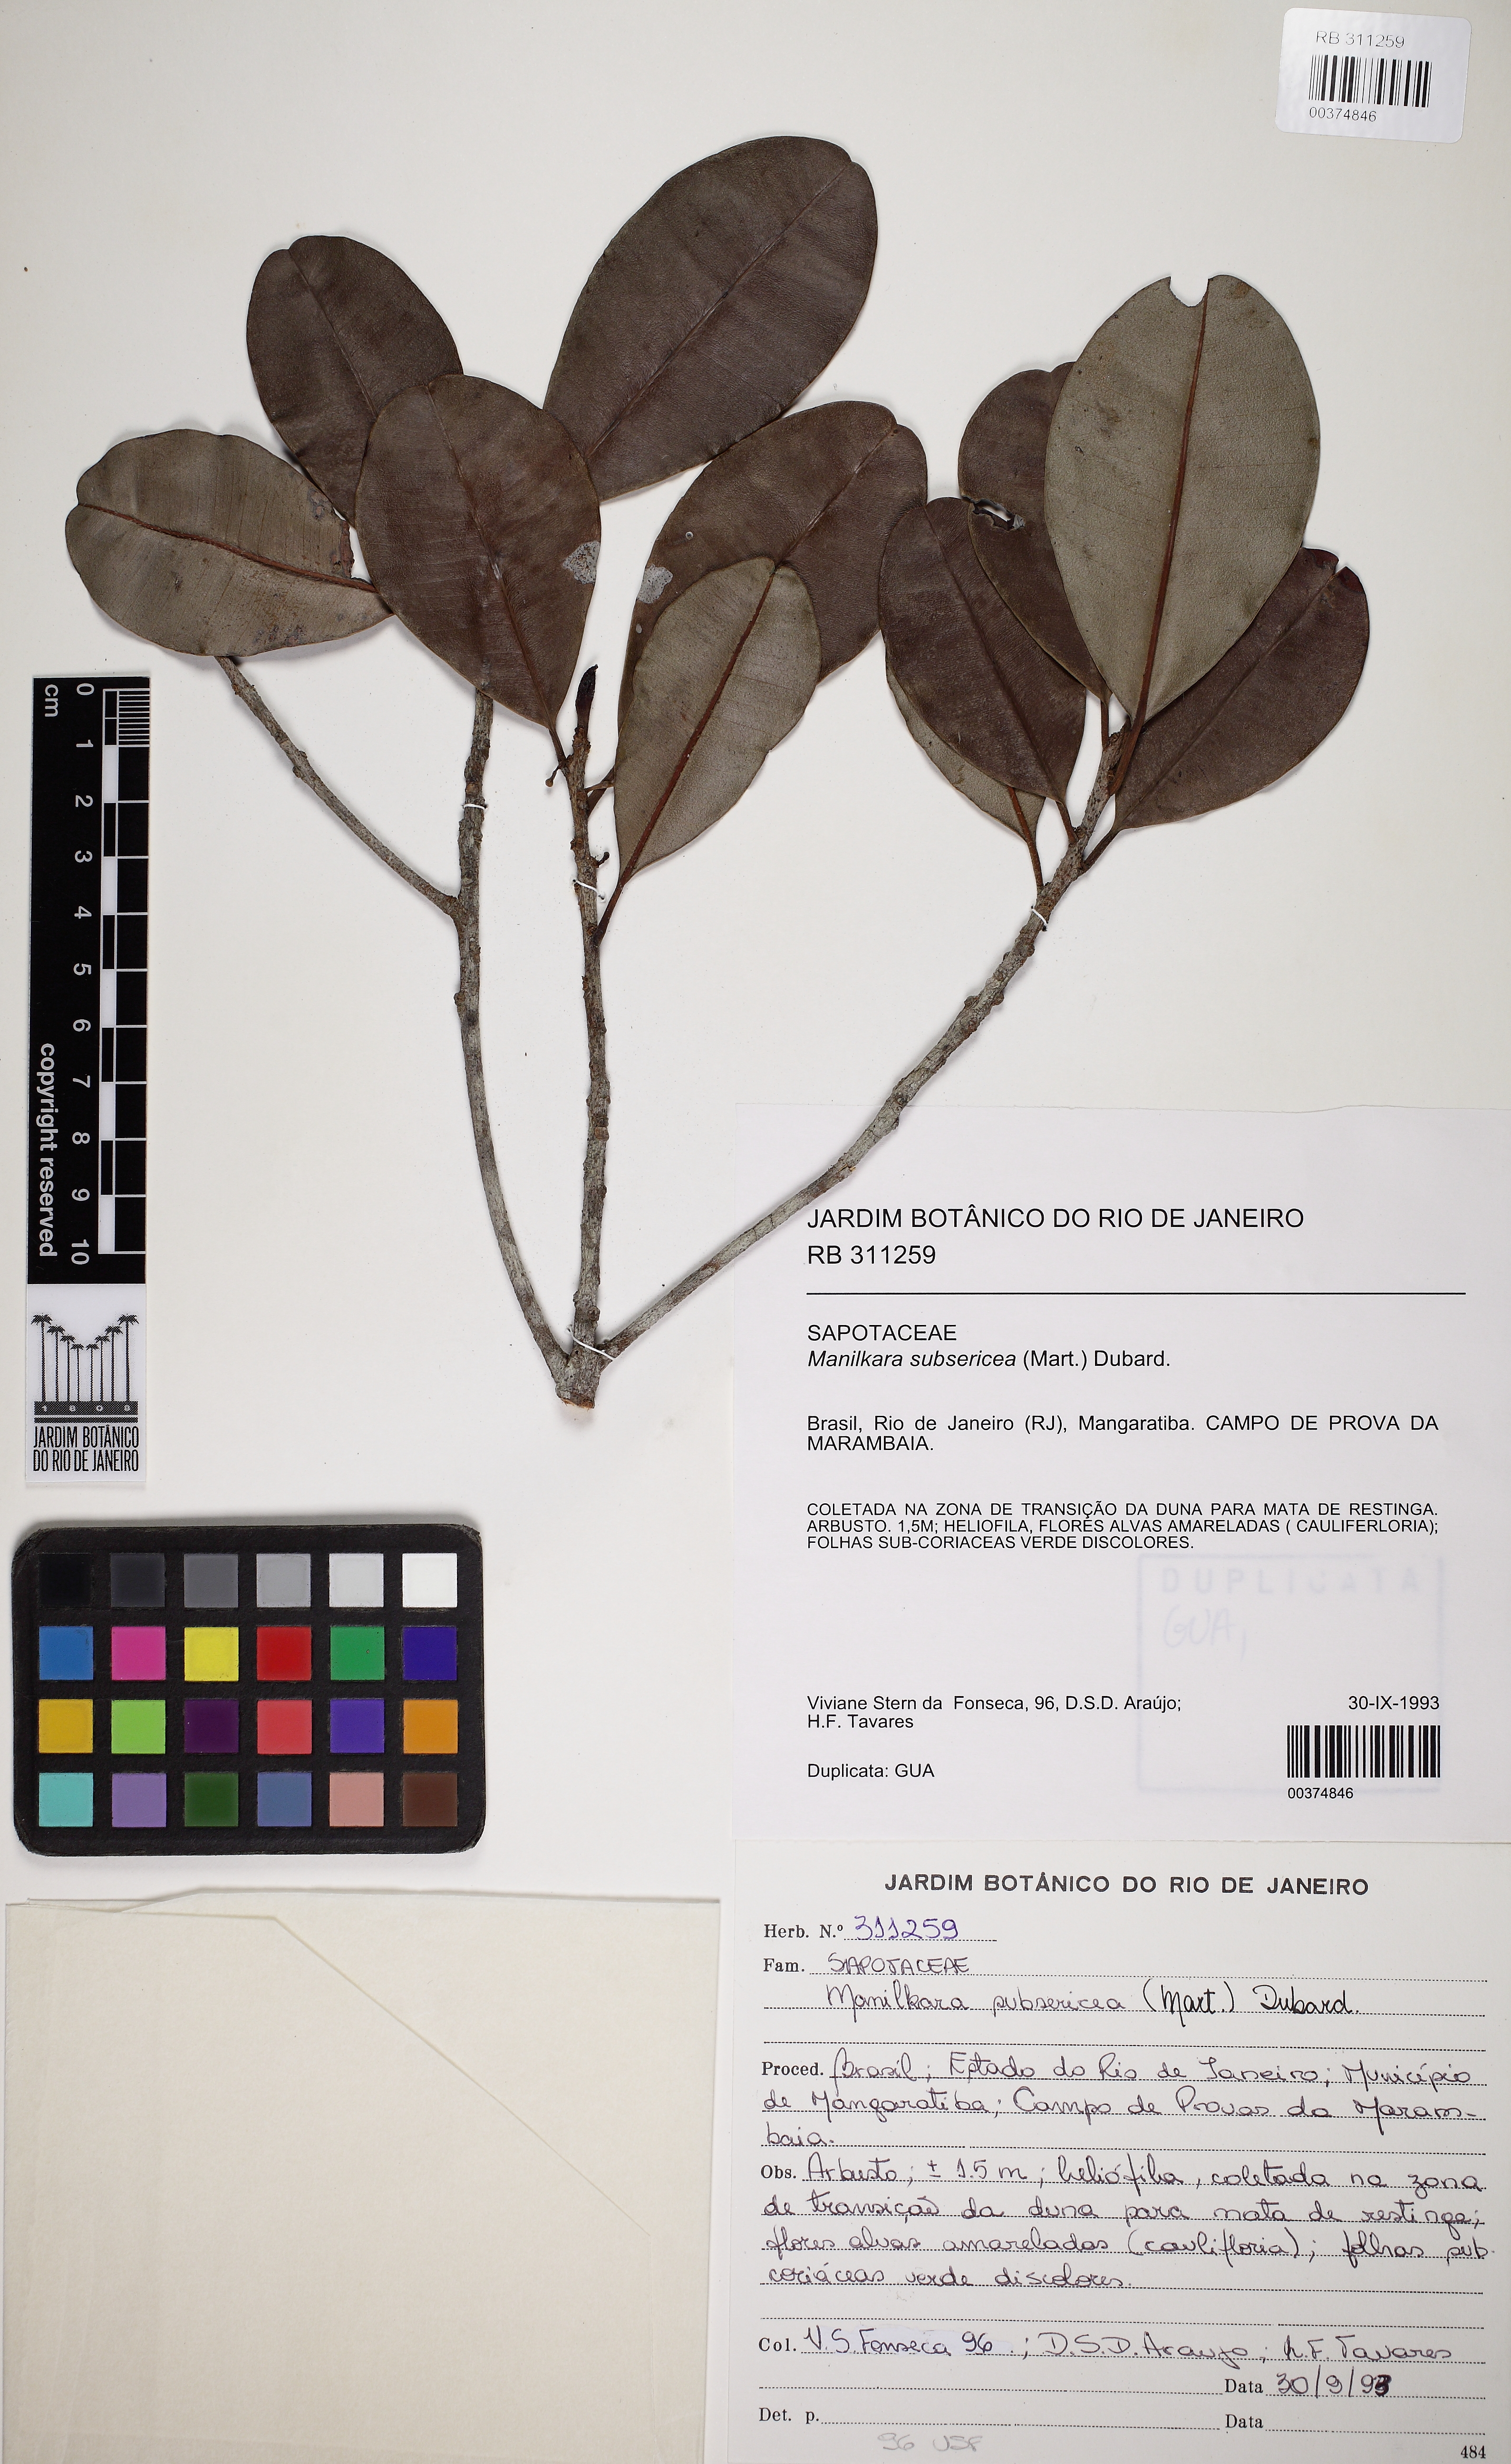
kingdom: Plantae
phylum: Tracheophyta
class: Magnoliopsida
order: Ericales
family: Sapotaceae
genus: Manilkara
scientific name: Manilkara subsericea
